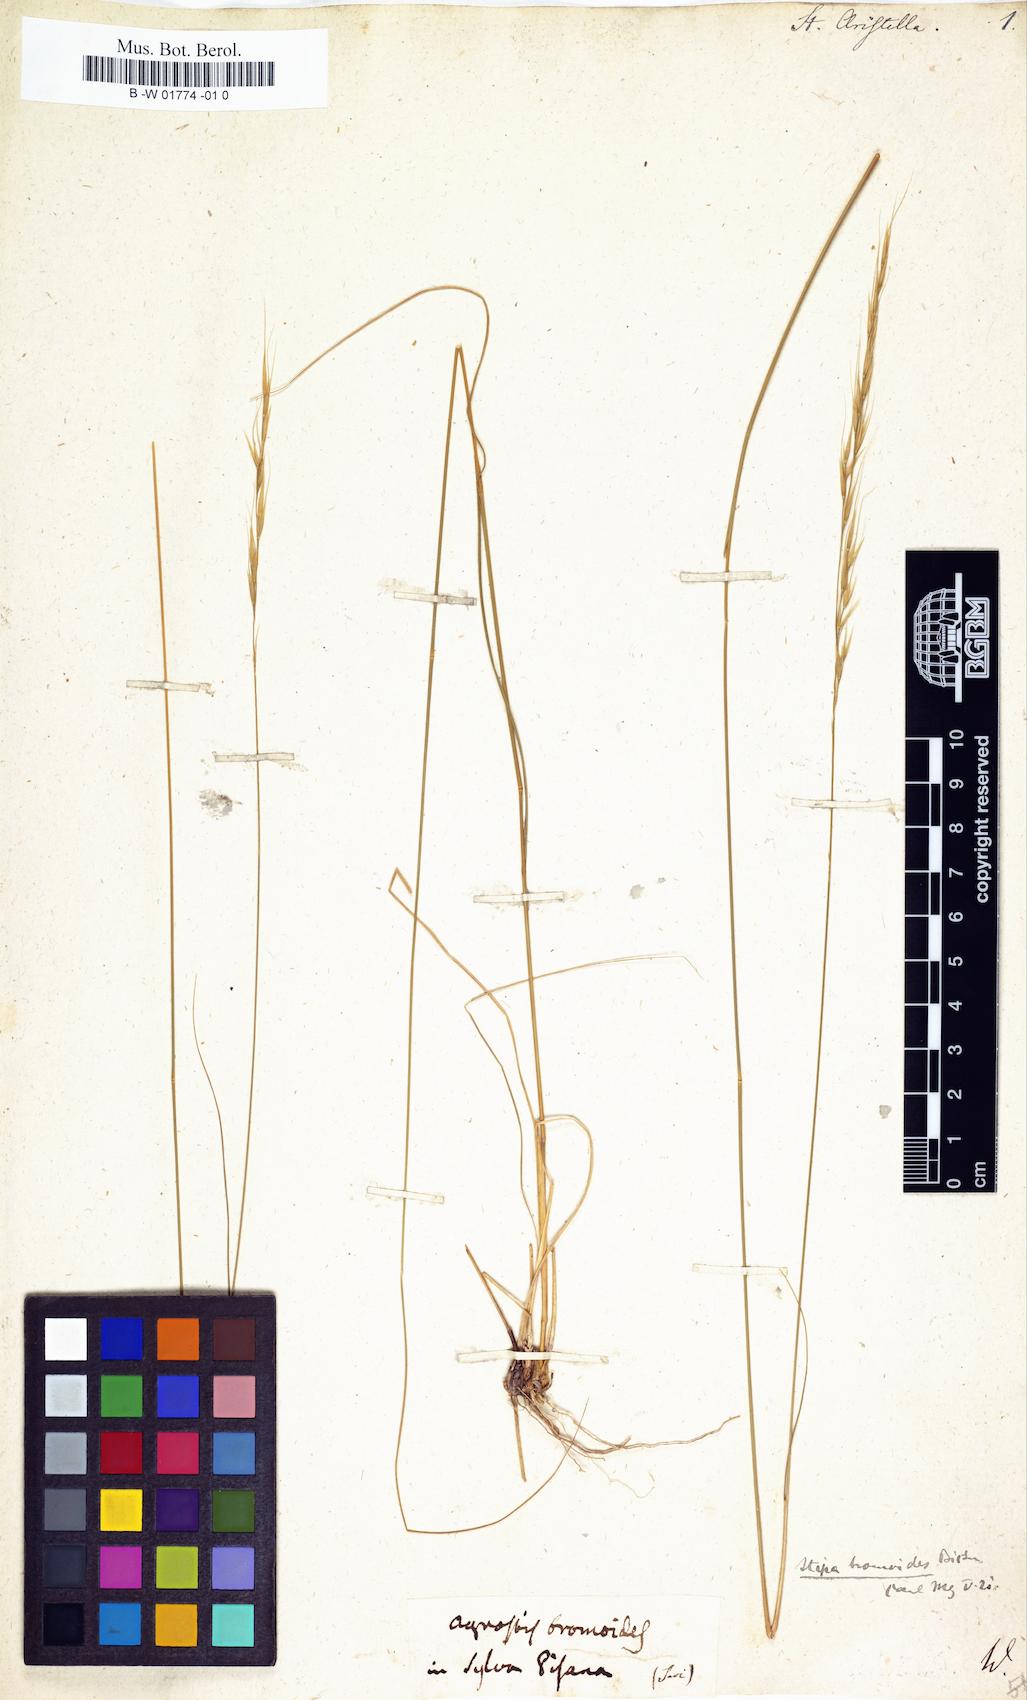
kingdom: Plantae
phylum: Tracheophyta
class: Liliopsida
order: Poales
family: Poaceae
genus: Achnatherum
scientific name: Achnatherum bromoides
